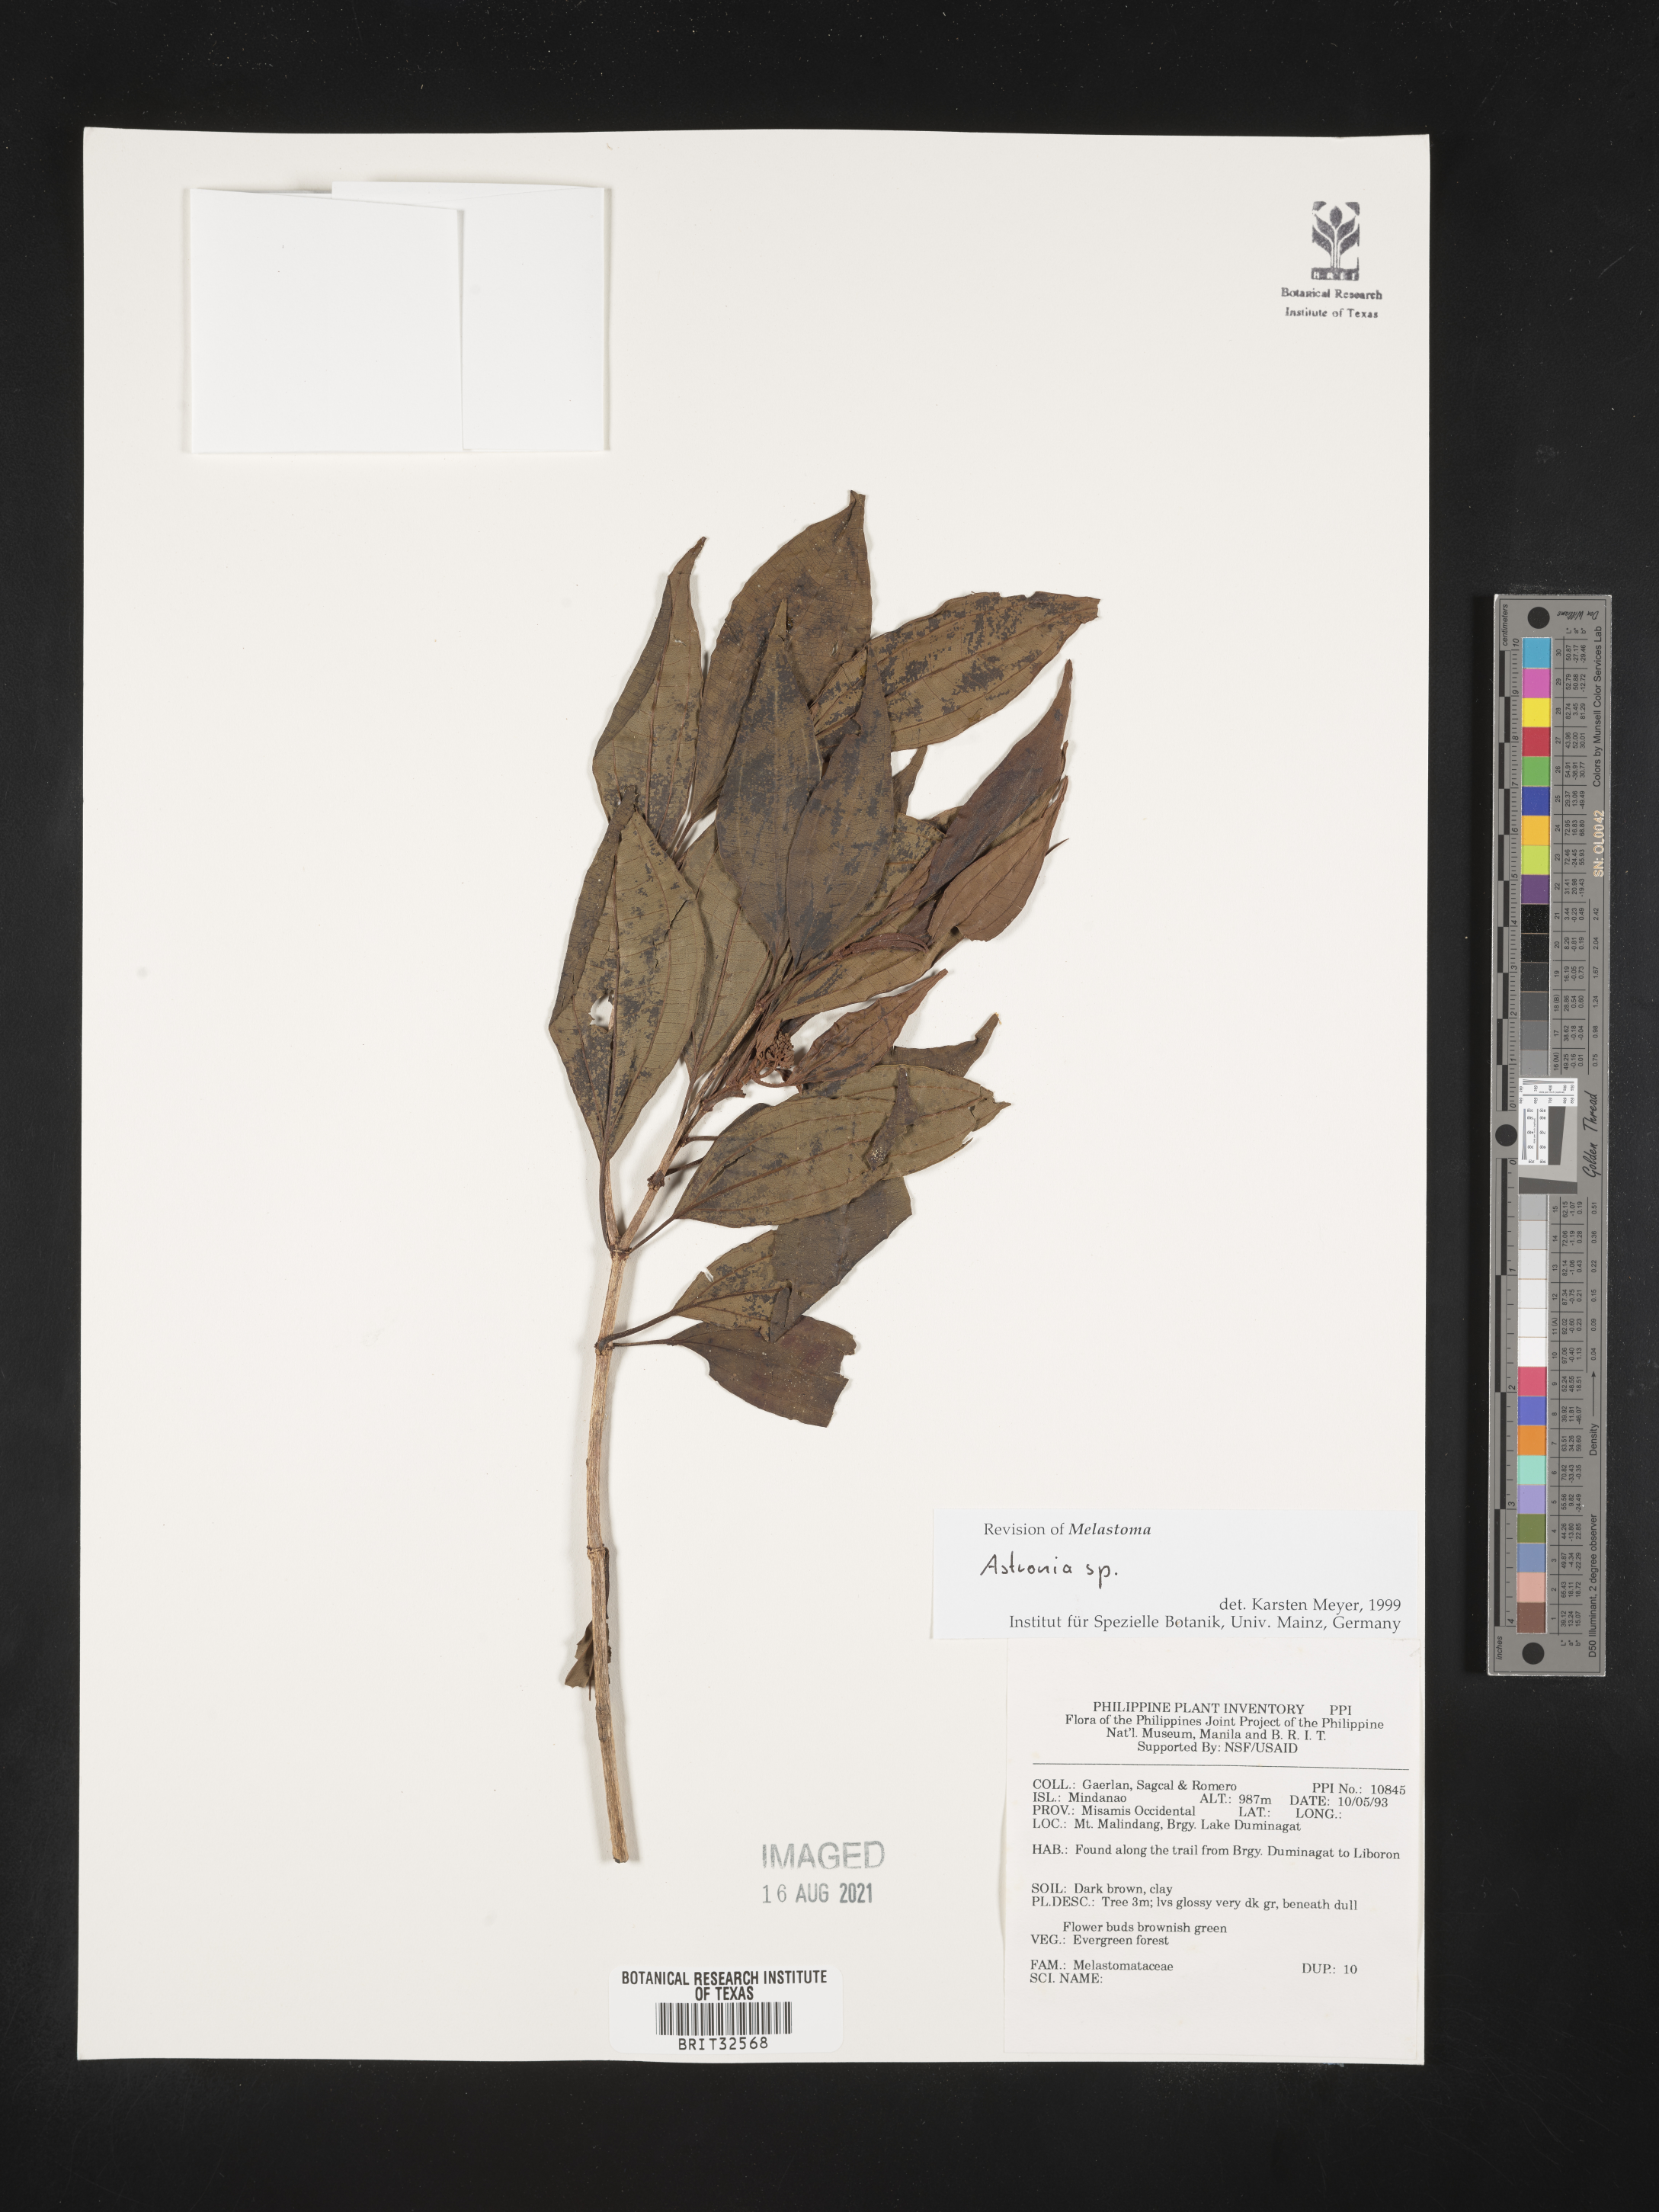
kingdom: Plantae
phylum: Tracheophyta
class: Magnoliopsida
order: Myrtales
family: Melastomataceae
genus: Astronia
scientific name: Astronia
